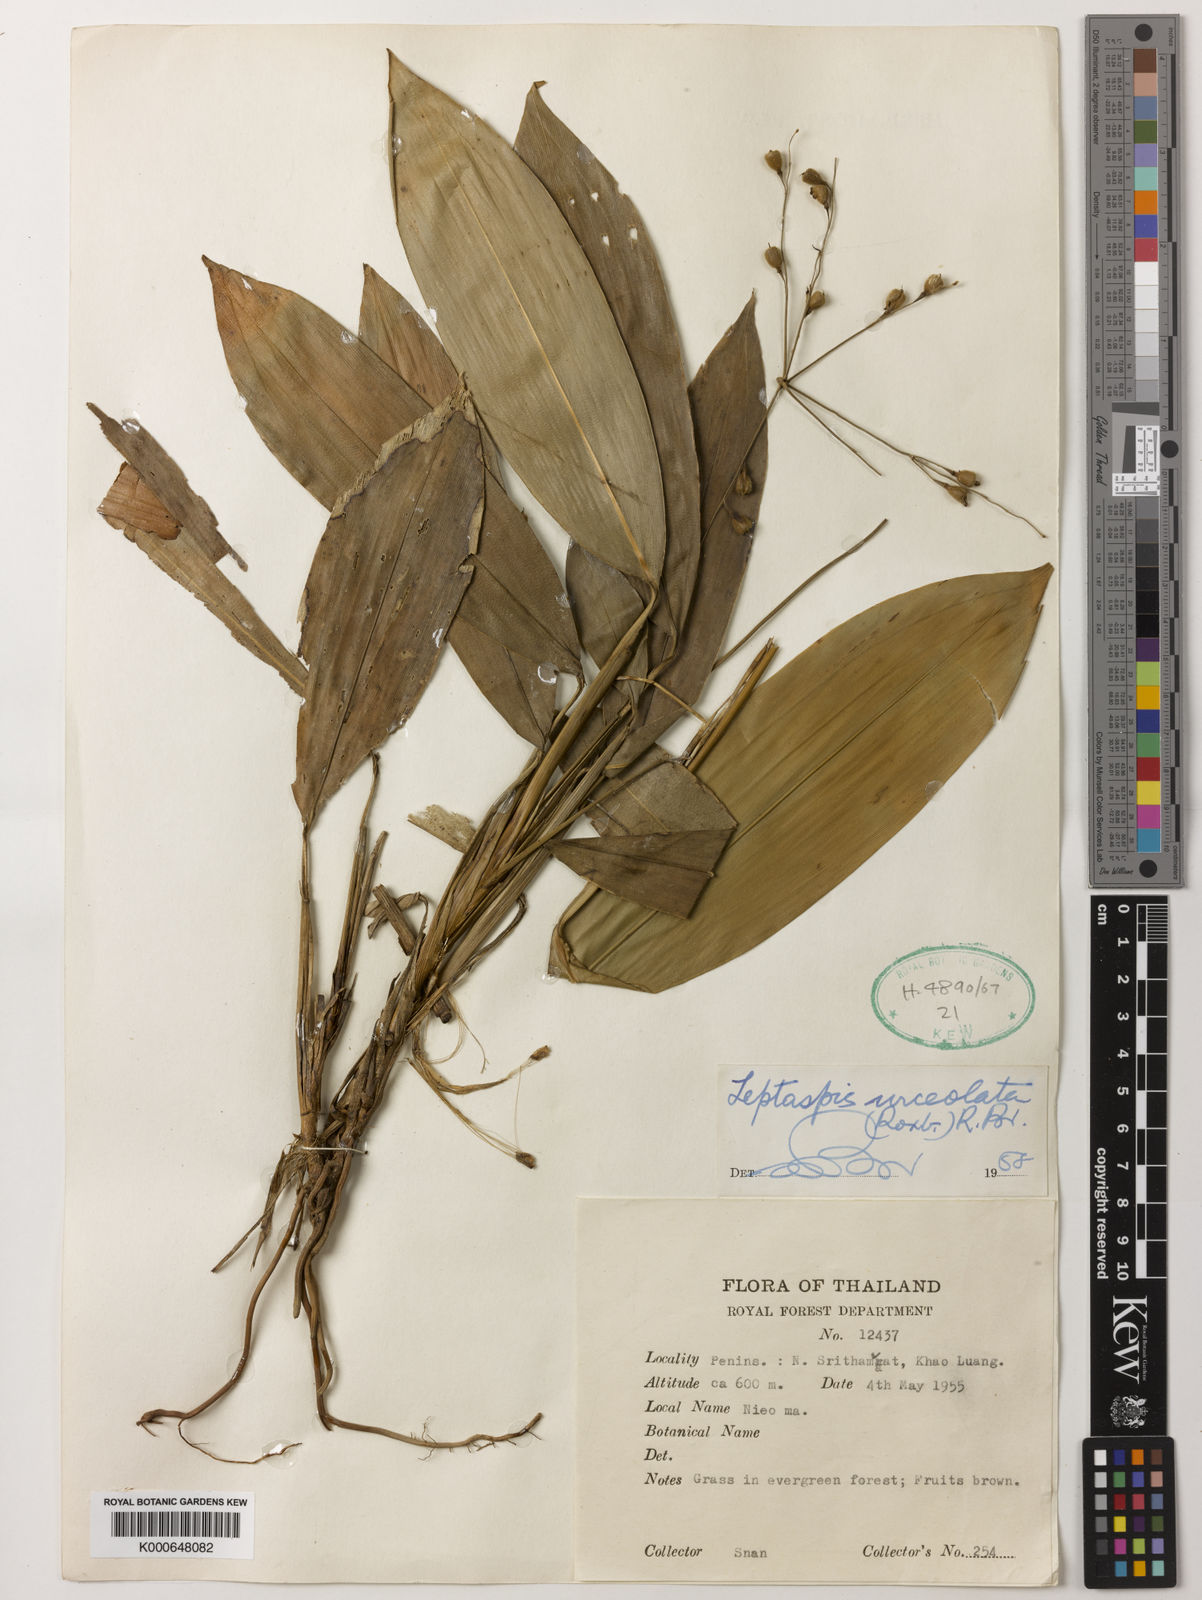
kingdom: Plantae
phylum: Tracheophyta
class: Liliopsida
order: Poales
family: Poaceae
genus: Scrotochloa
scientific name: Scrotochloa urceolata
